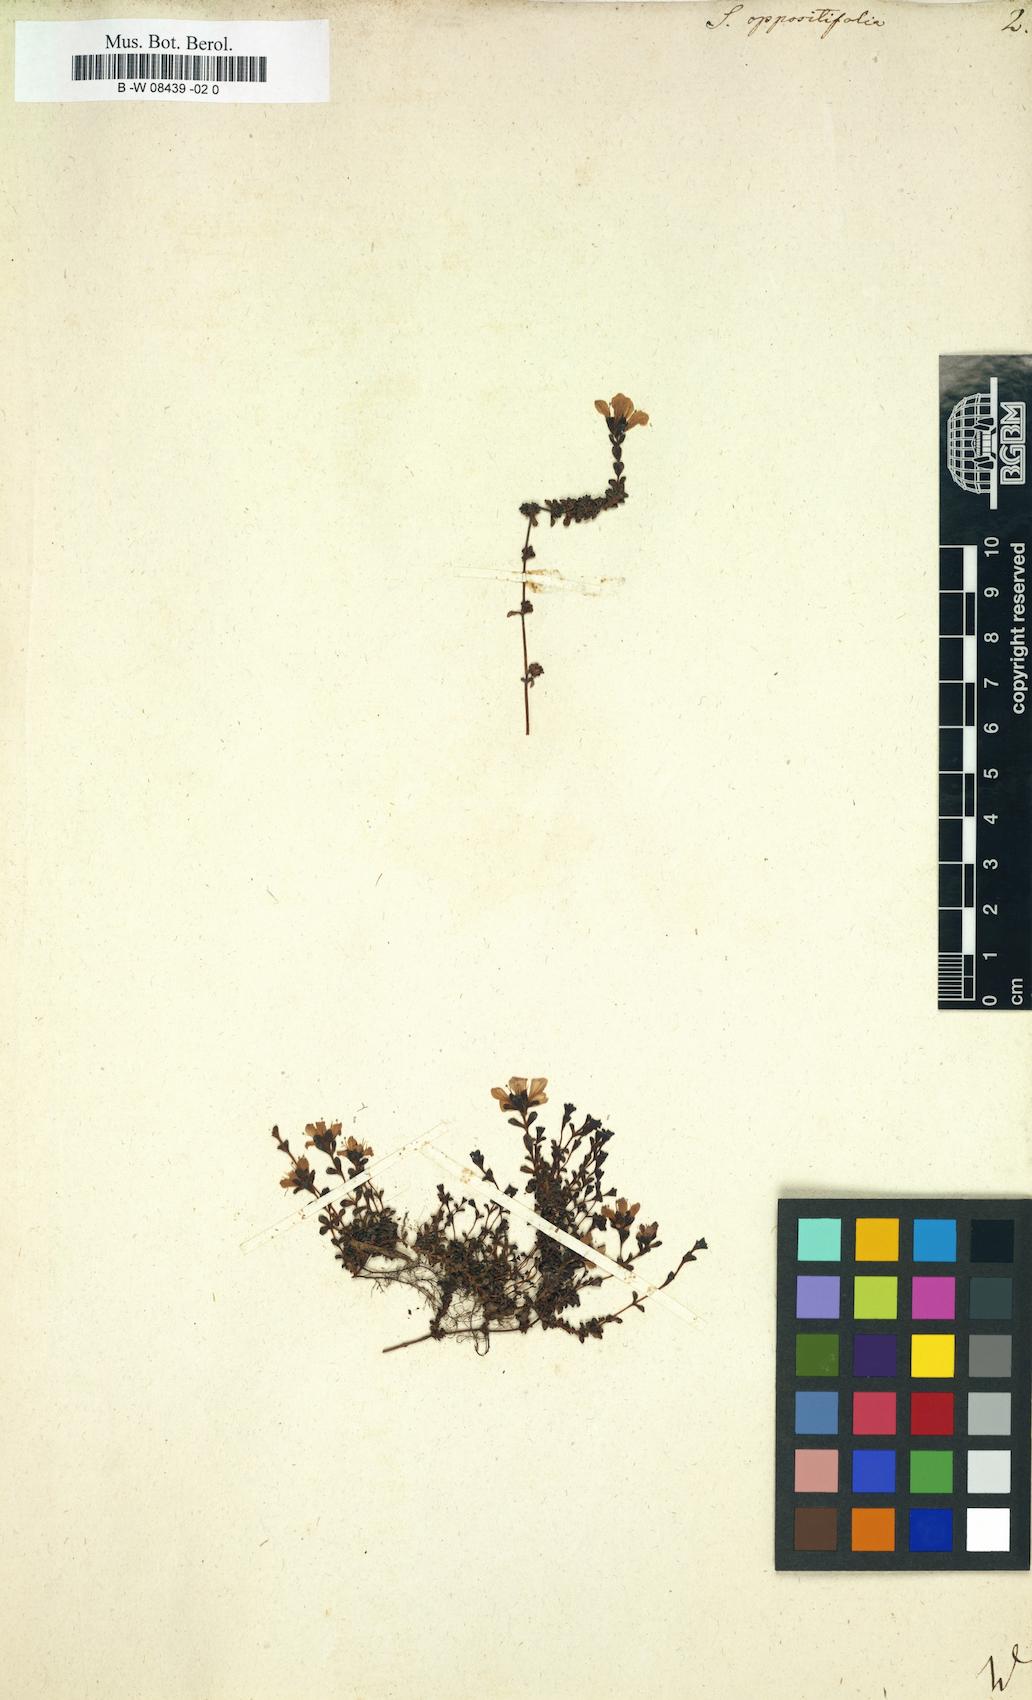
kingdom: Plantae
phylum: Tracheophyta
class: Magnoliopsida
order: Saxifragales
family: Saxifragaceae
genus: Saxifraga
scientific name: Saxifraga oppositifolia
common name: Purple saxifrage
